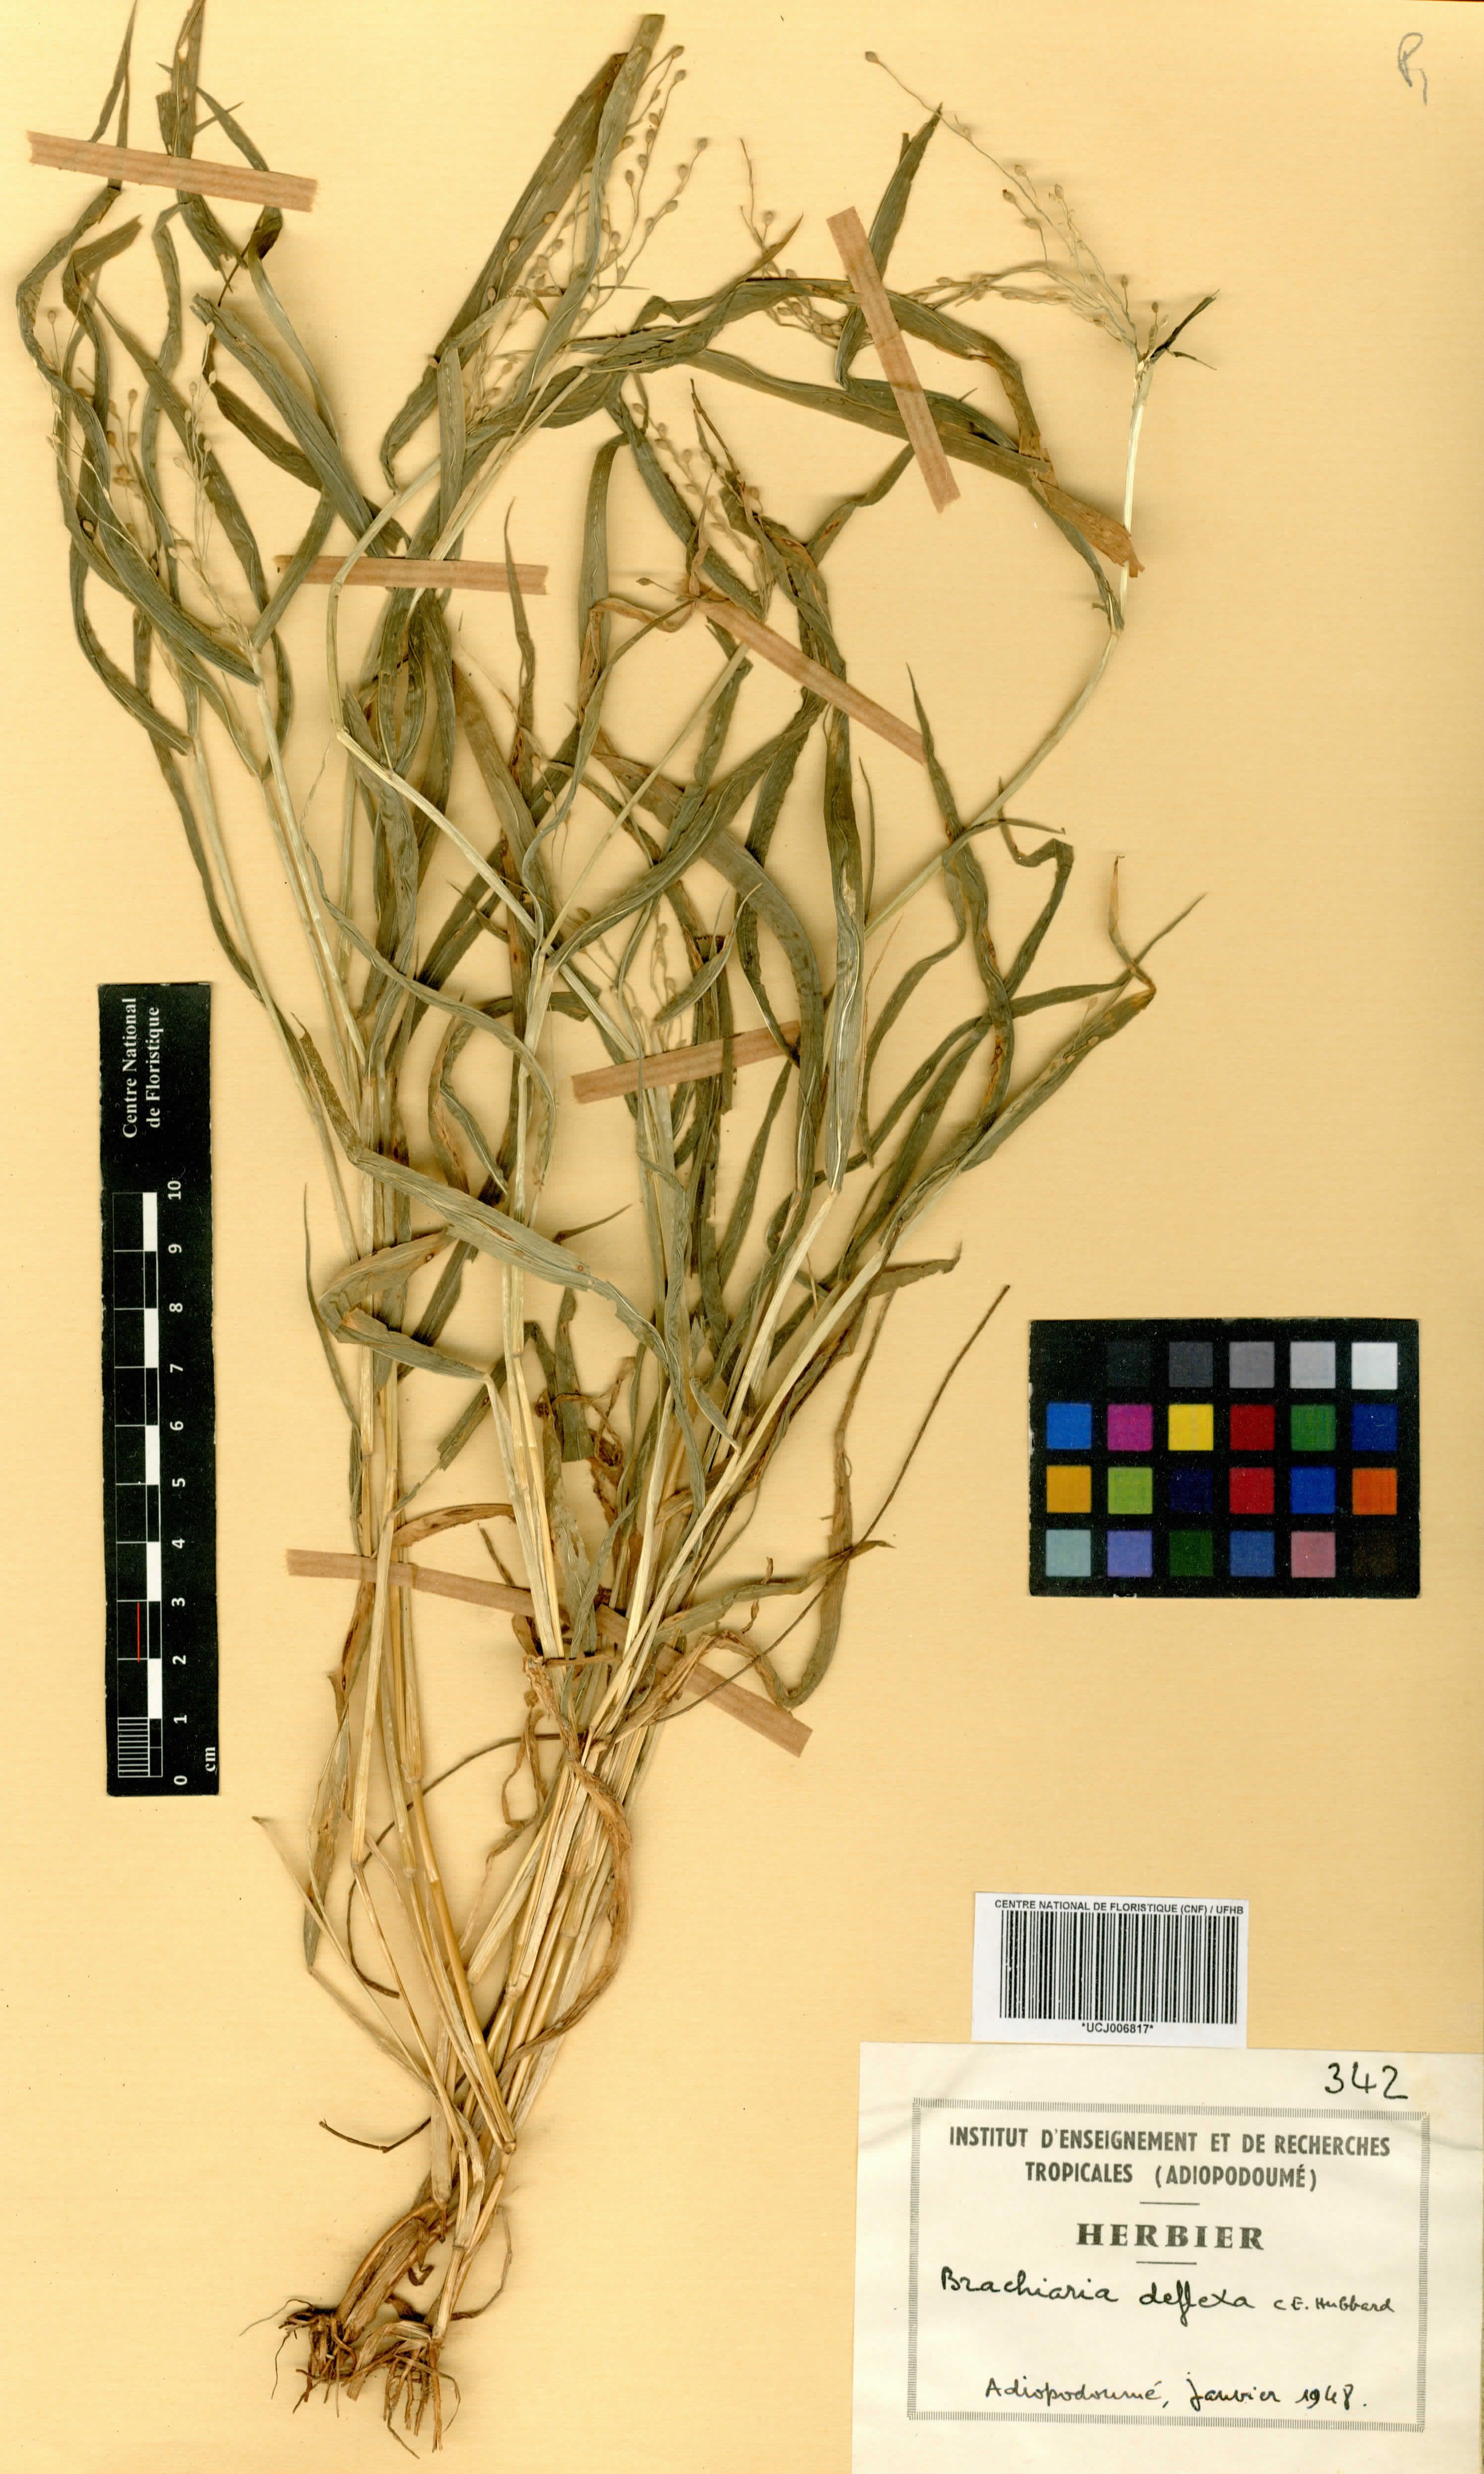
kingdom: Plantae
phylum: Tracheophyta
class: Liliopsida
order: Poales
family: Poaceae
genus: Urochloa
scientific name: Urochloa deflexa
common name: Guinea millet
